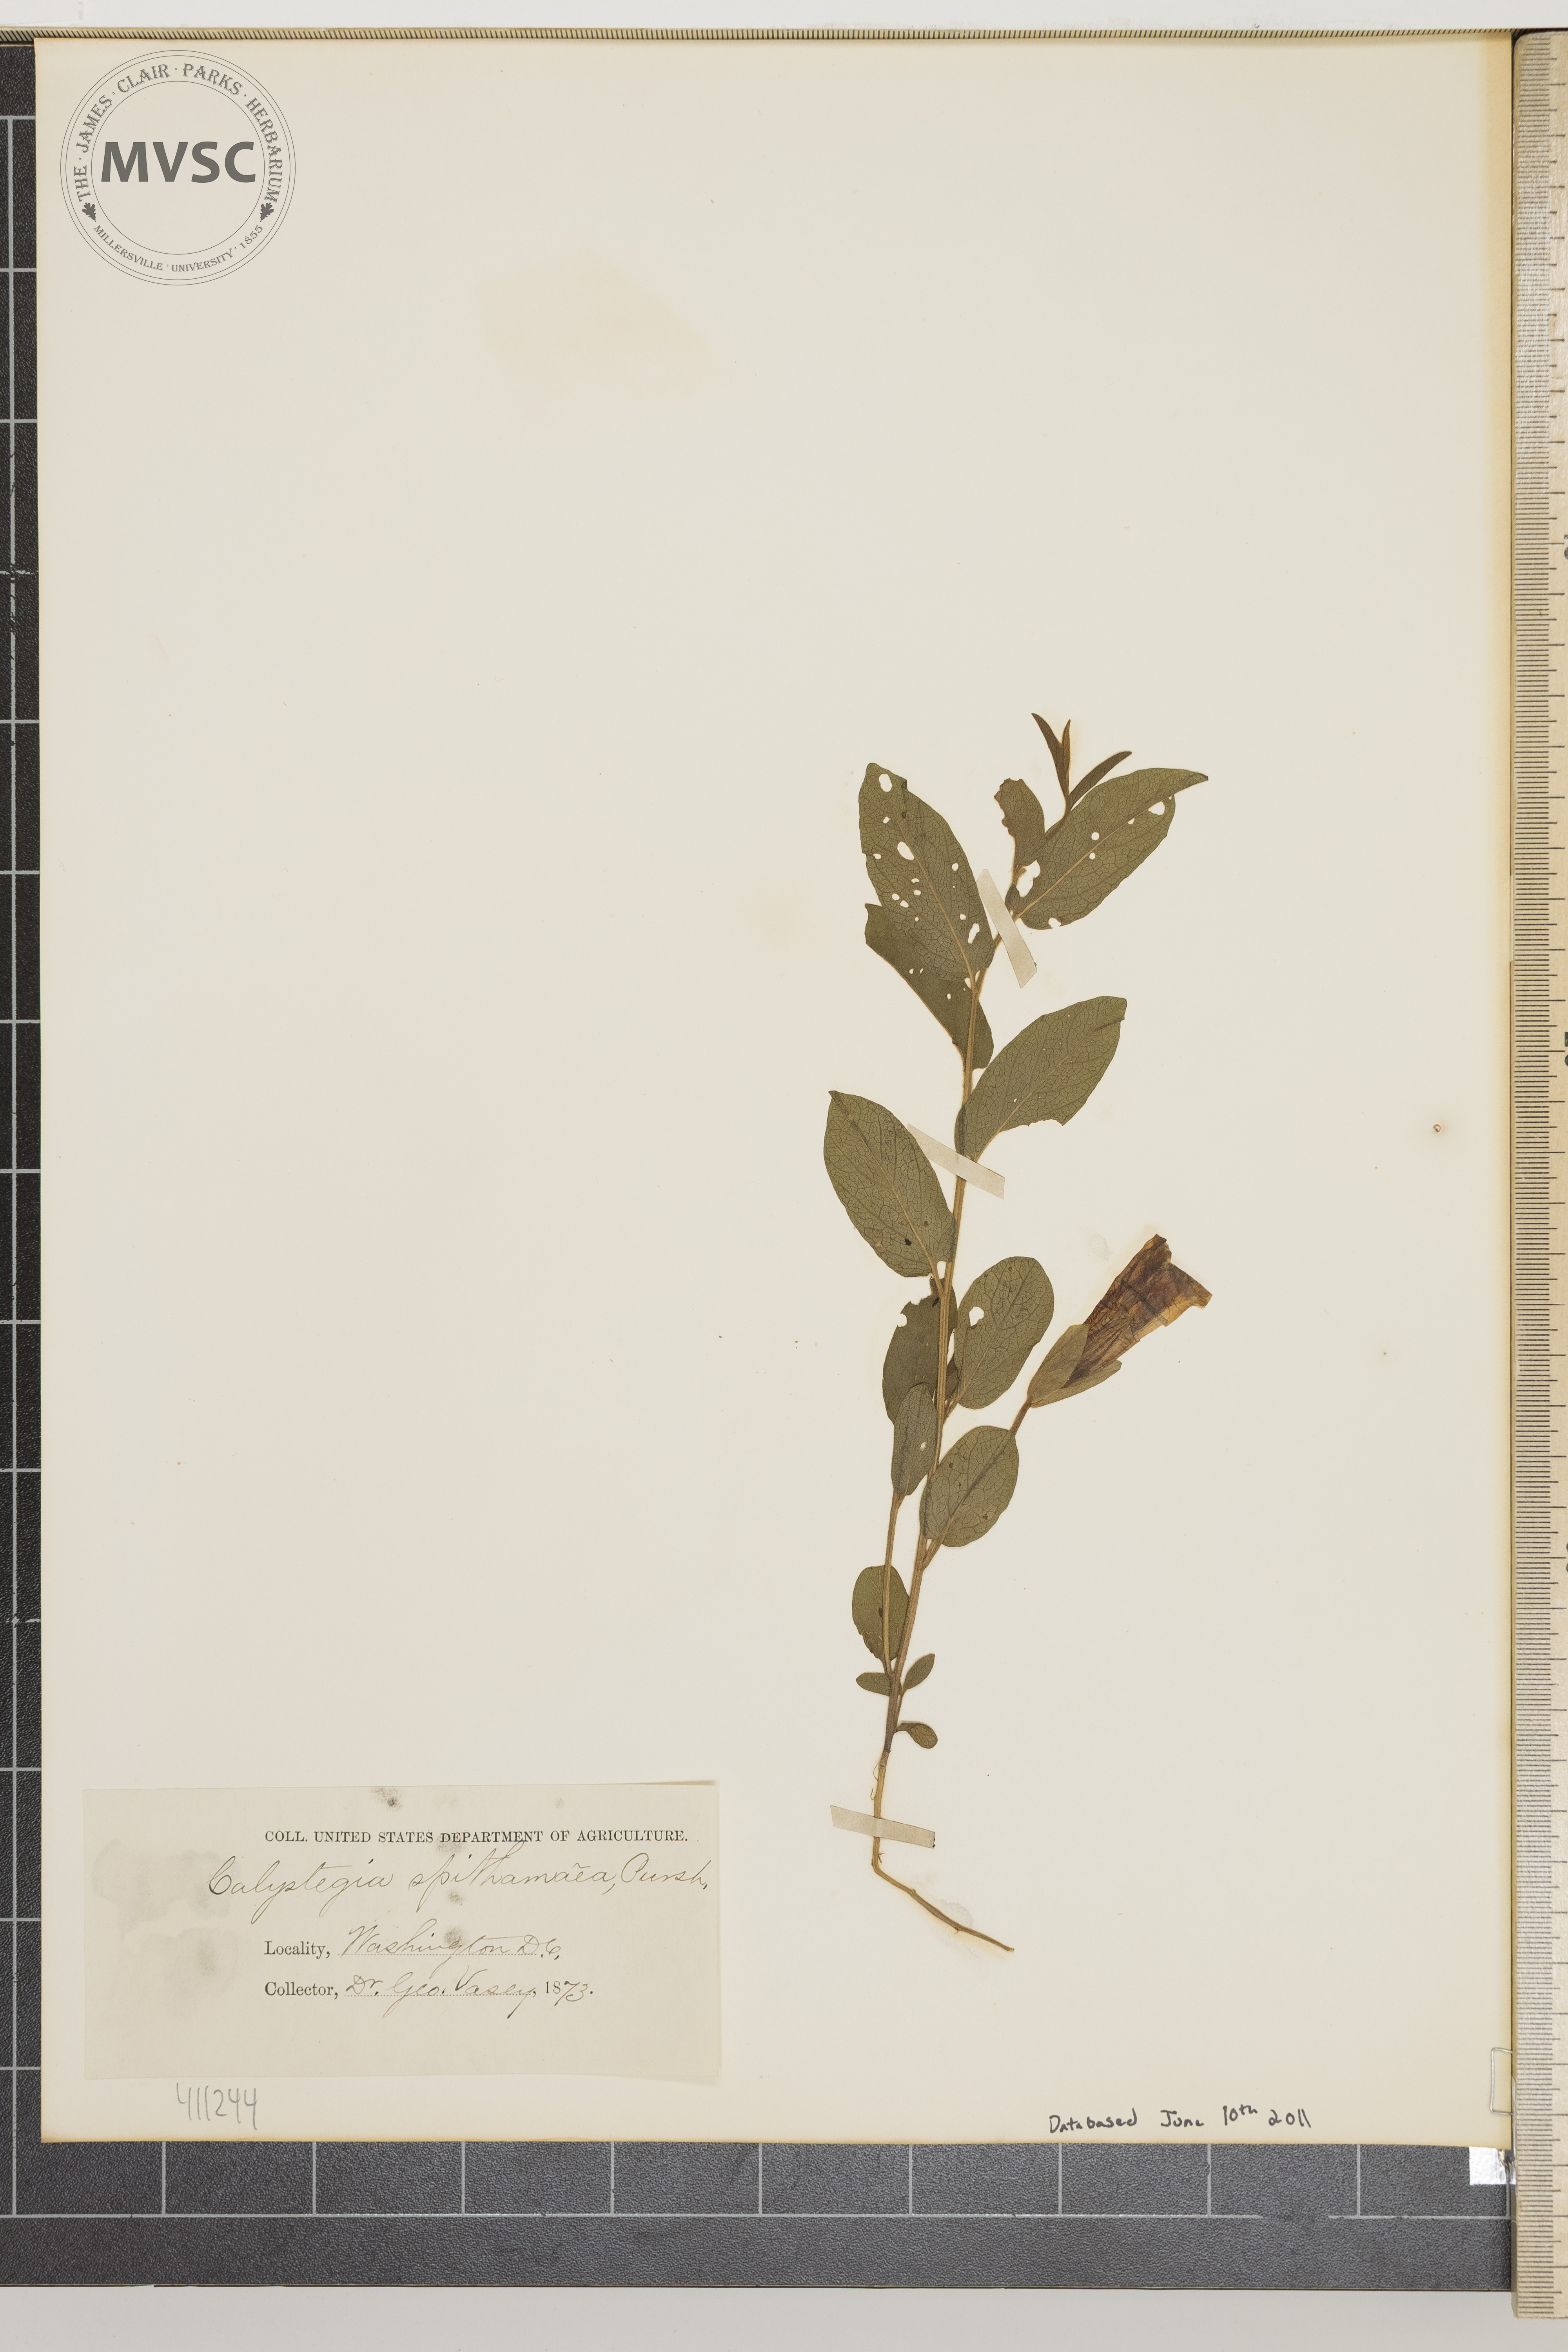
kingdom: Plantae
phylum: Tracheophyta
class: Magnoliopsida
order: Solanales
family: Convolvulaceae
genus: Calystegia
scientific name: Calystegia spithamaea
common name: Dwarf bindweed
